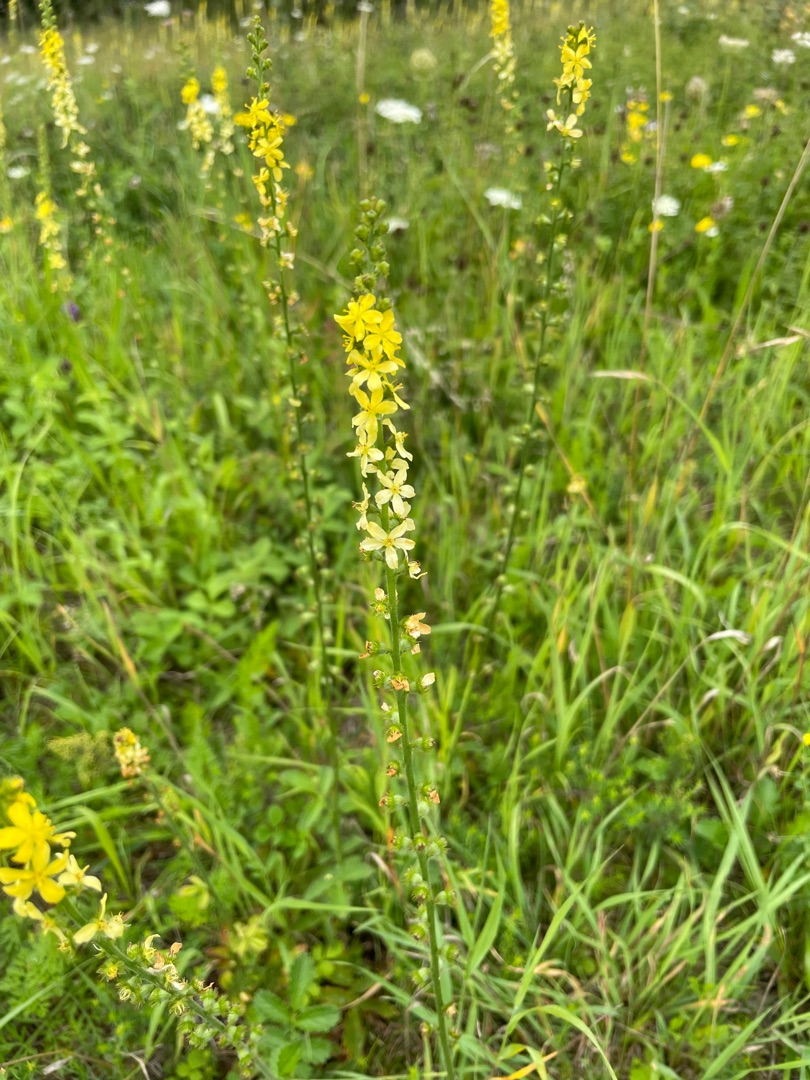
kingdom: Plantae
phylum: Tracheophyta
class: Magnoliopsida
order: Rosales
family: Rosaceae
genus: Agrimonia
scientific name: Agrimonia eupatoria
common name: Almindelig agermåne
